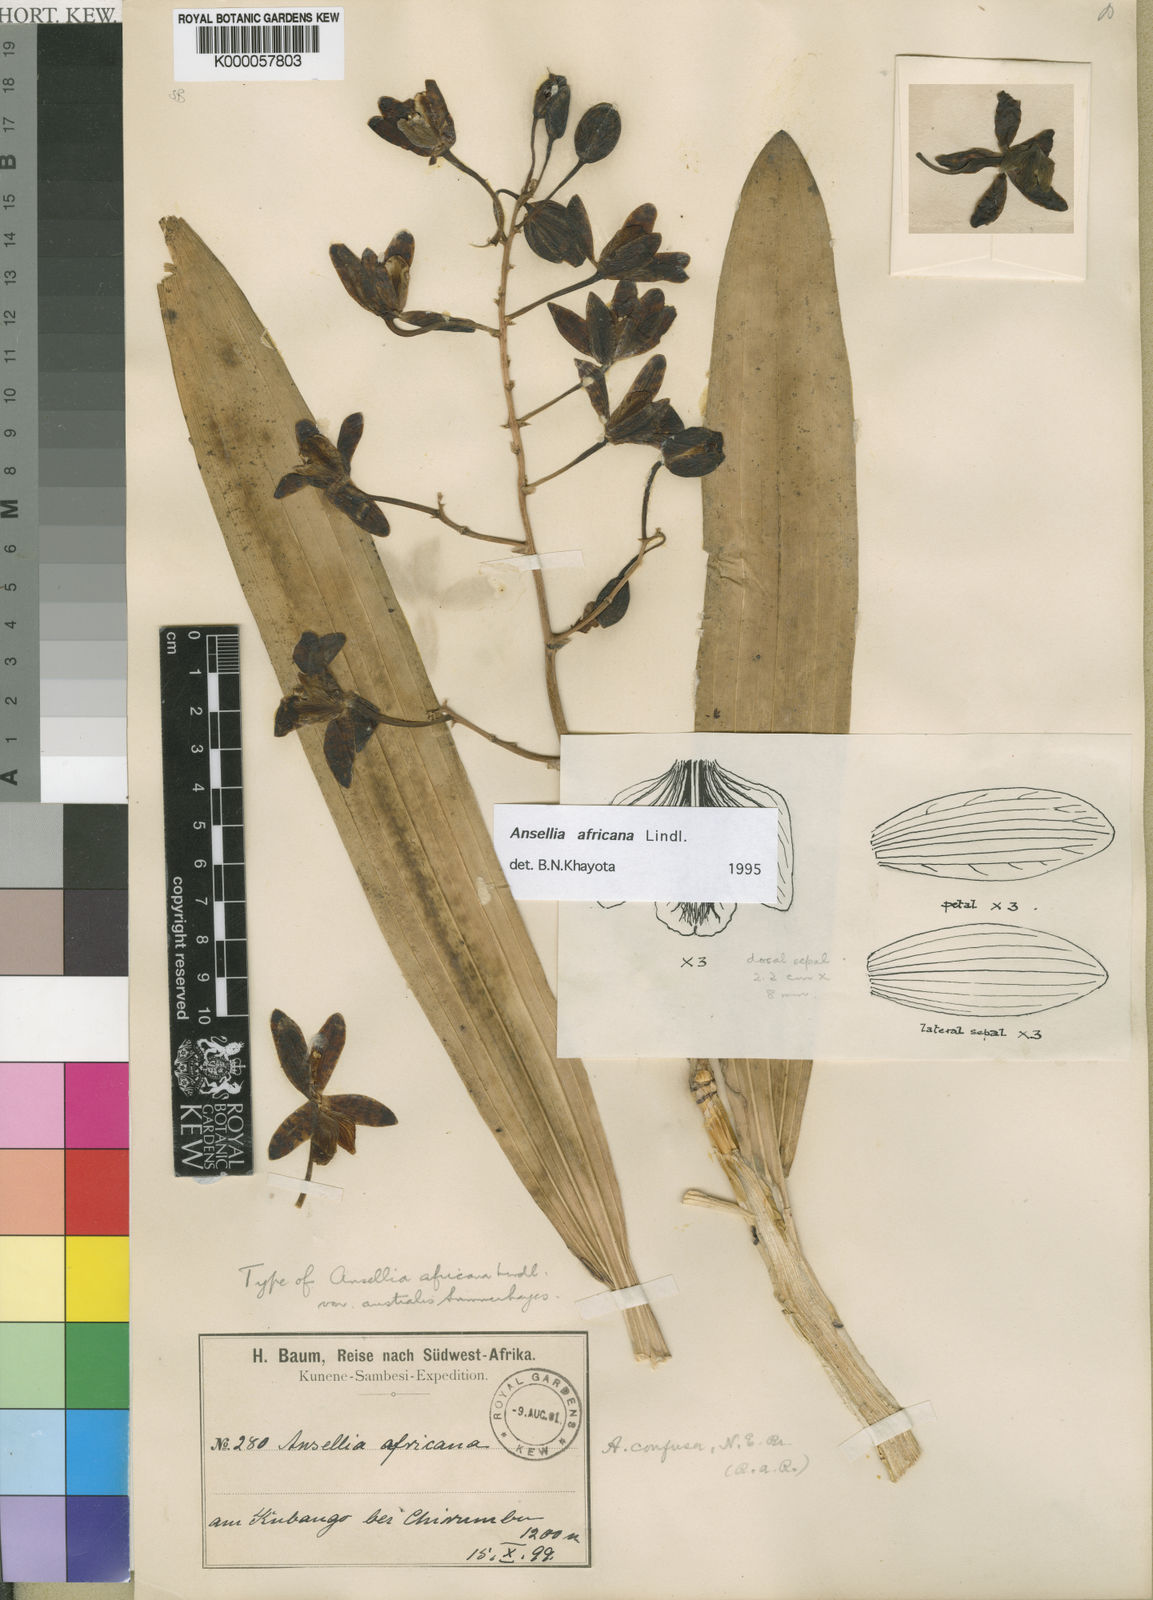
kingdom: Plantae
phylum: Tracheophyta
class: Liliopsida
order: Asparagales
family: Orchidaceae
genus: Ansellia
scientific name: Ansellia africana
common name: African ansellia
